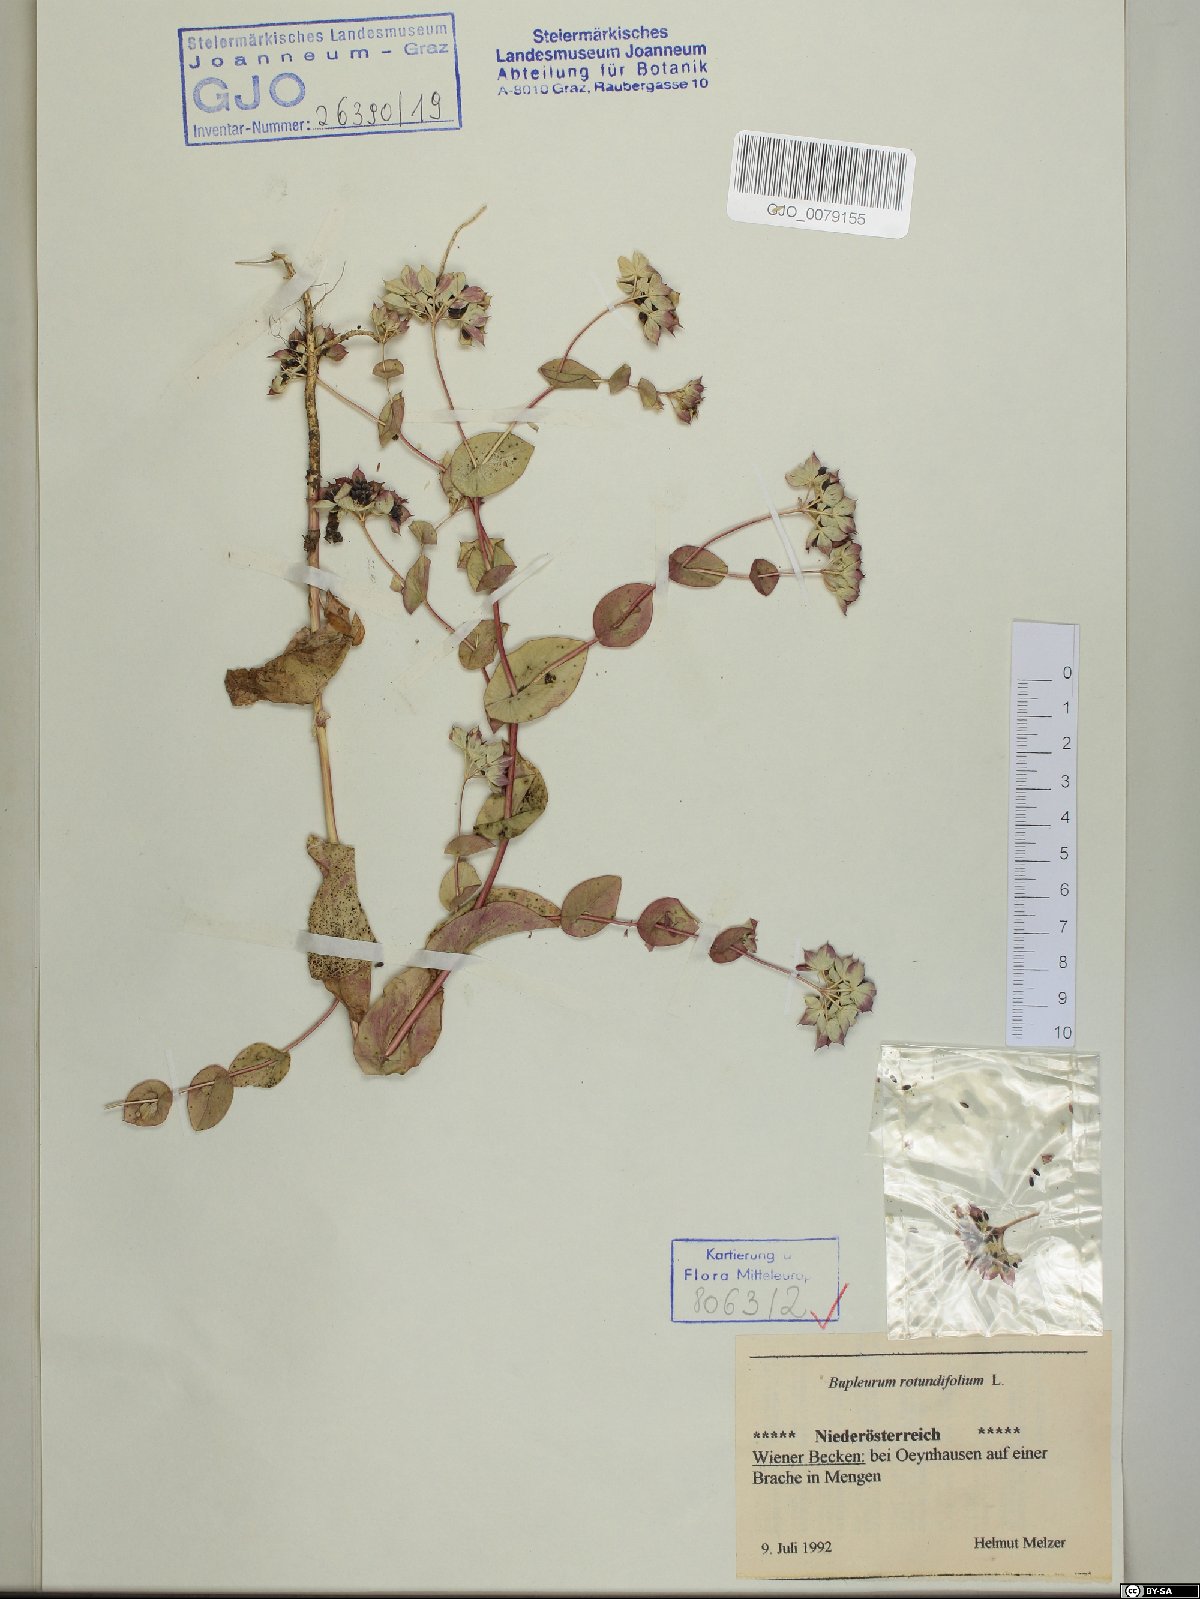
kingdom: Plantae
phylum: Tracheophyta
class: Magnoliopsida
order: Apiales
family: Apiaceae
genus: Bupleurum
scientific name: Bupleurum rotundifolium
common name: Thorow-wax
